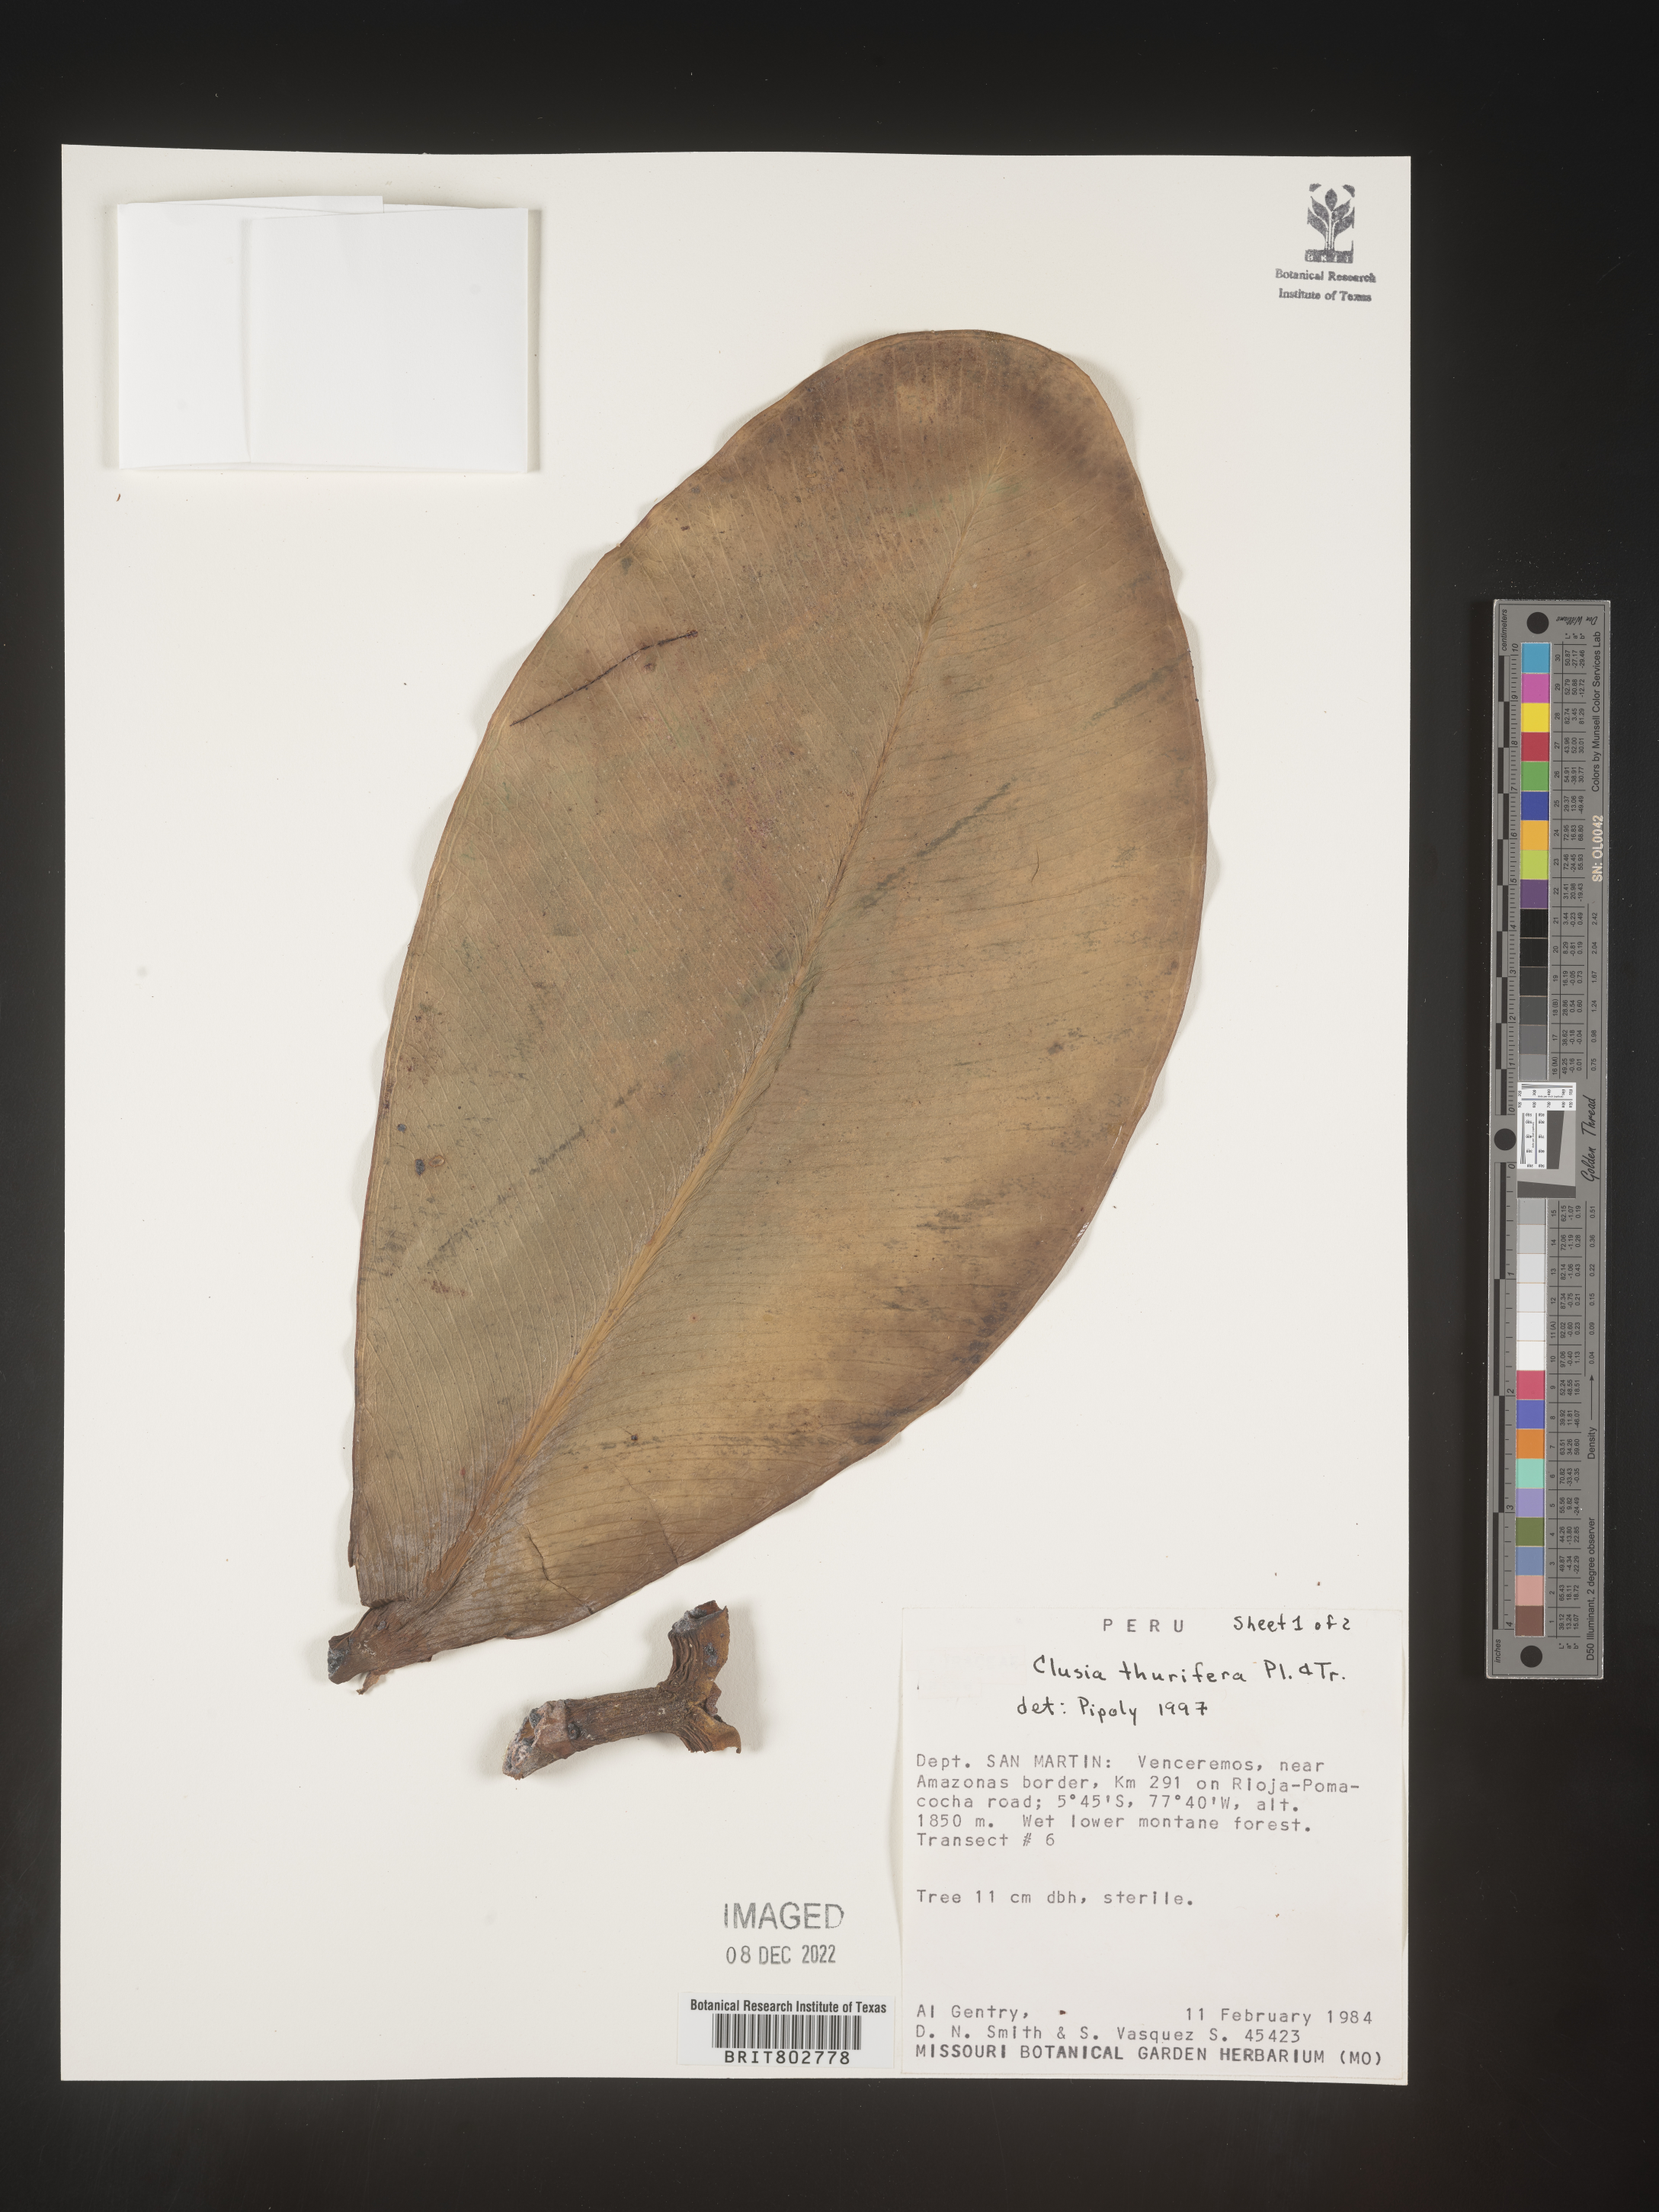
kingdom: Plantae
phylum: Tracheophyta
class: Magnoliopsida
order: Malpighiales
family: Clusiaceae
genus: Clusia
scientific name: Clusia thurifera
